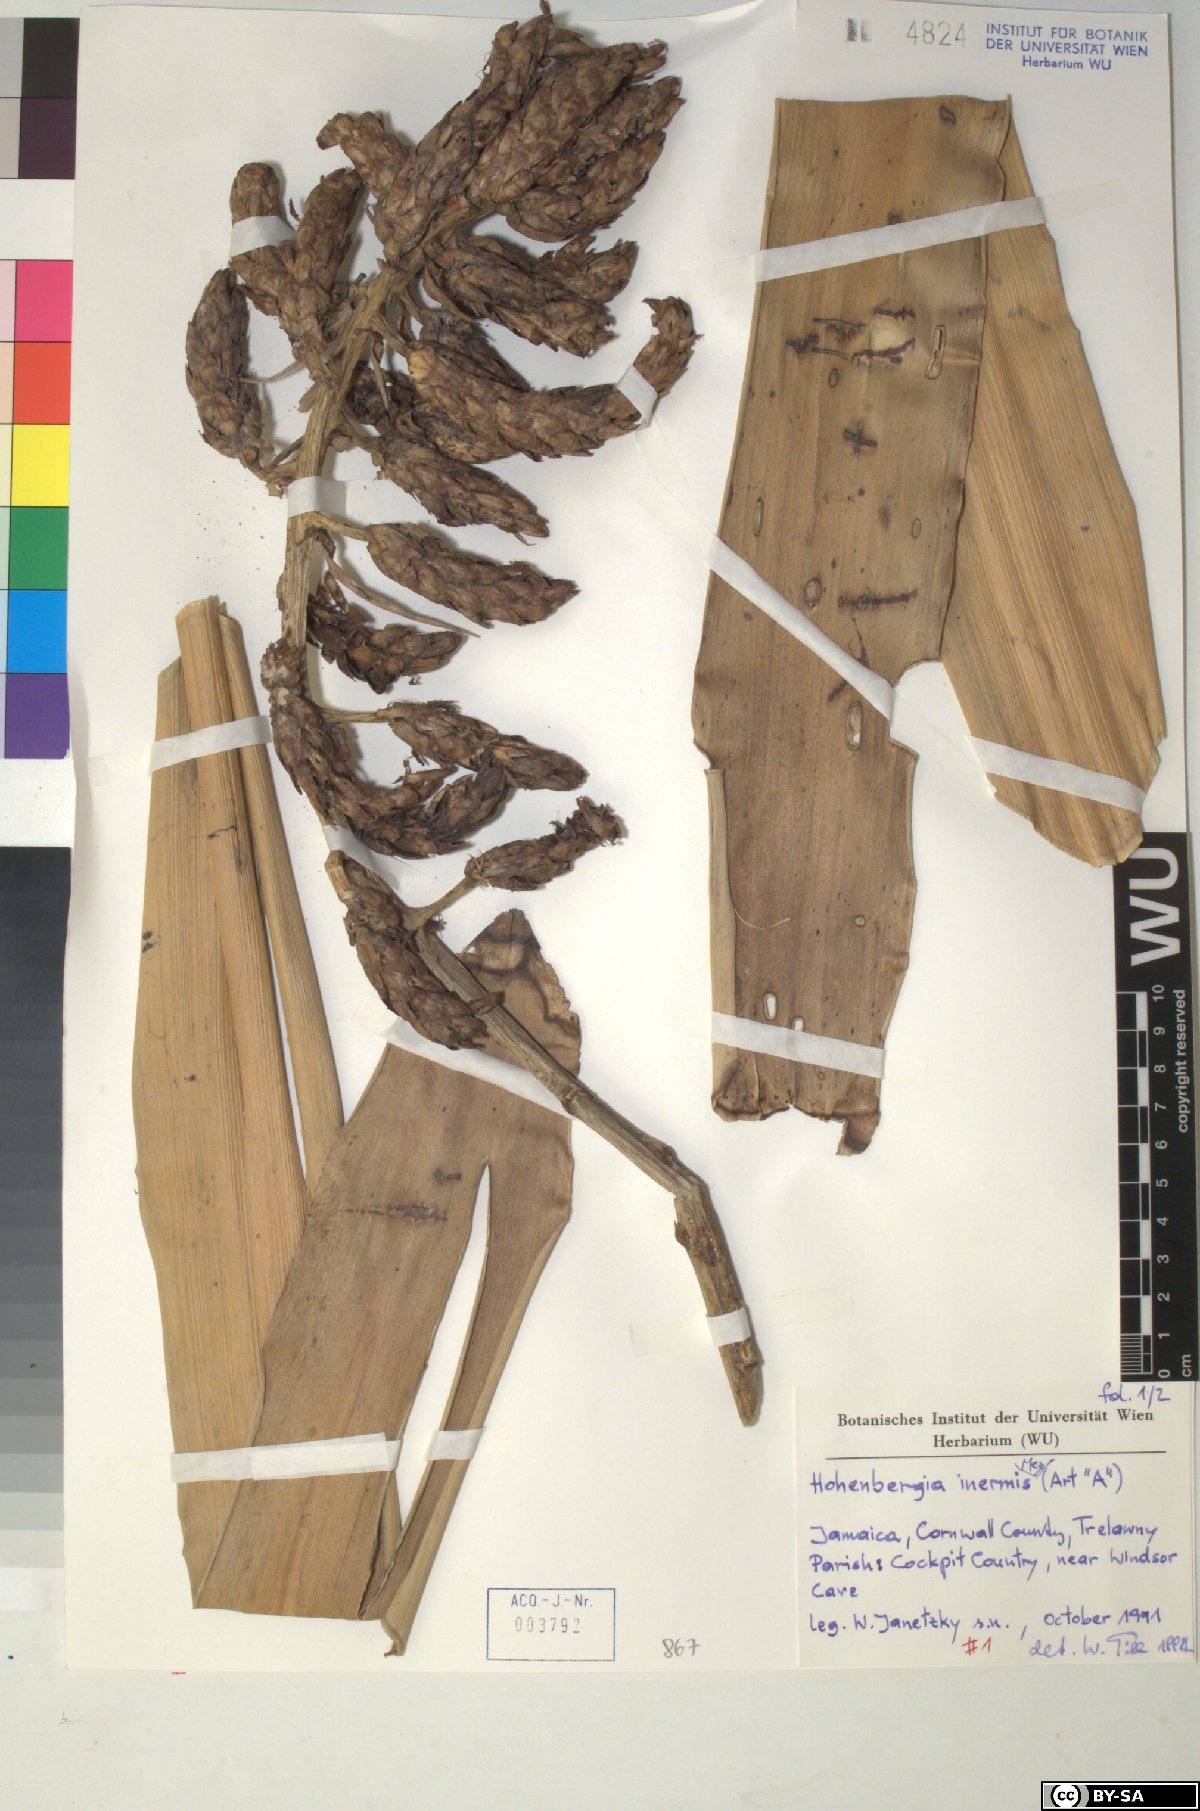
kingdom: Plantae
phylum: Tracheophyta
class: Liliopsida
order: Poales
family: Bromeliaceae
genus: Wittmackia
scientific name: Wittmackia inermis
